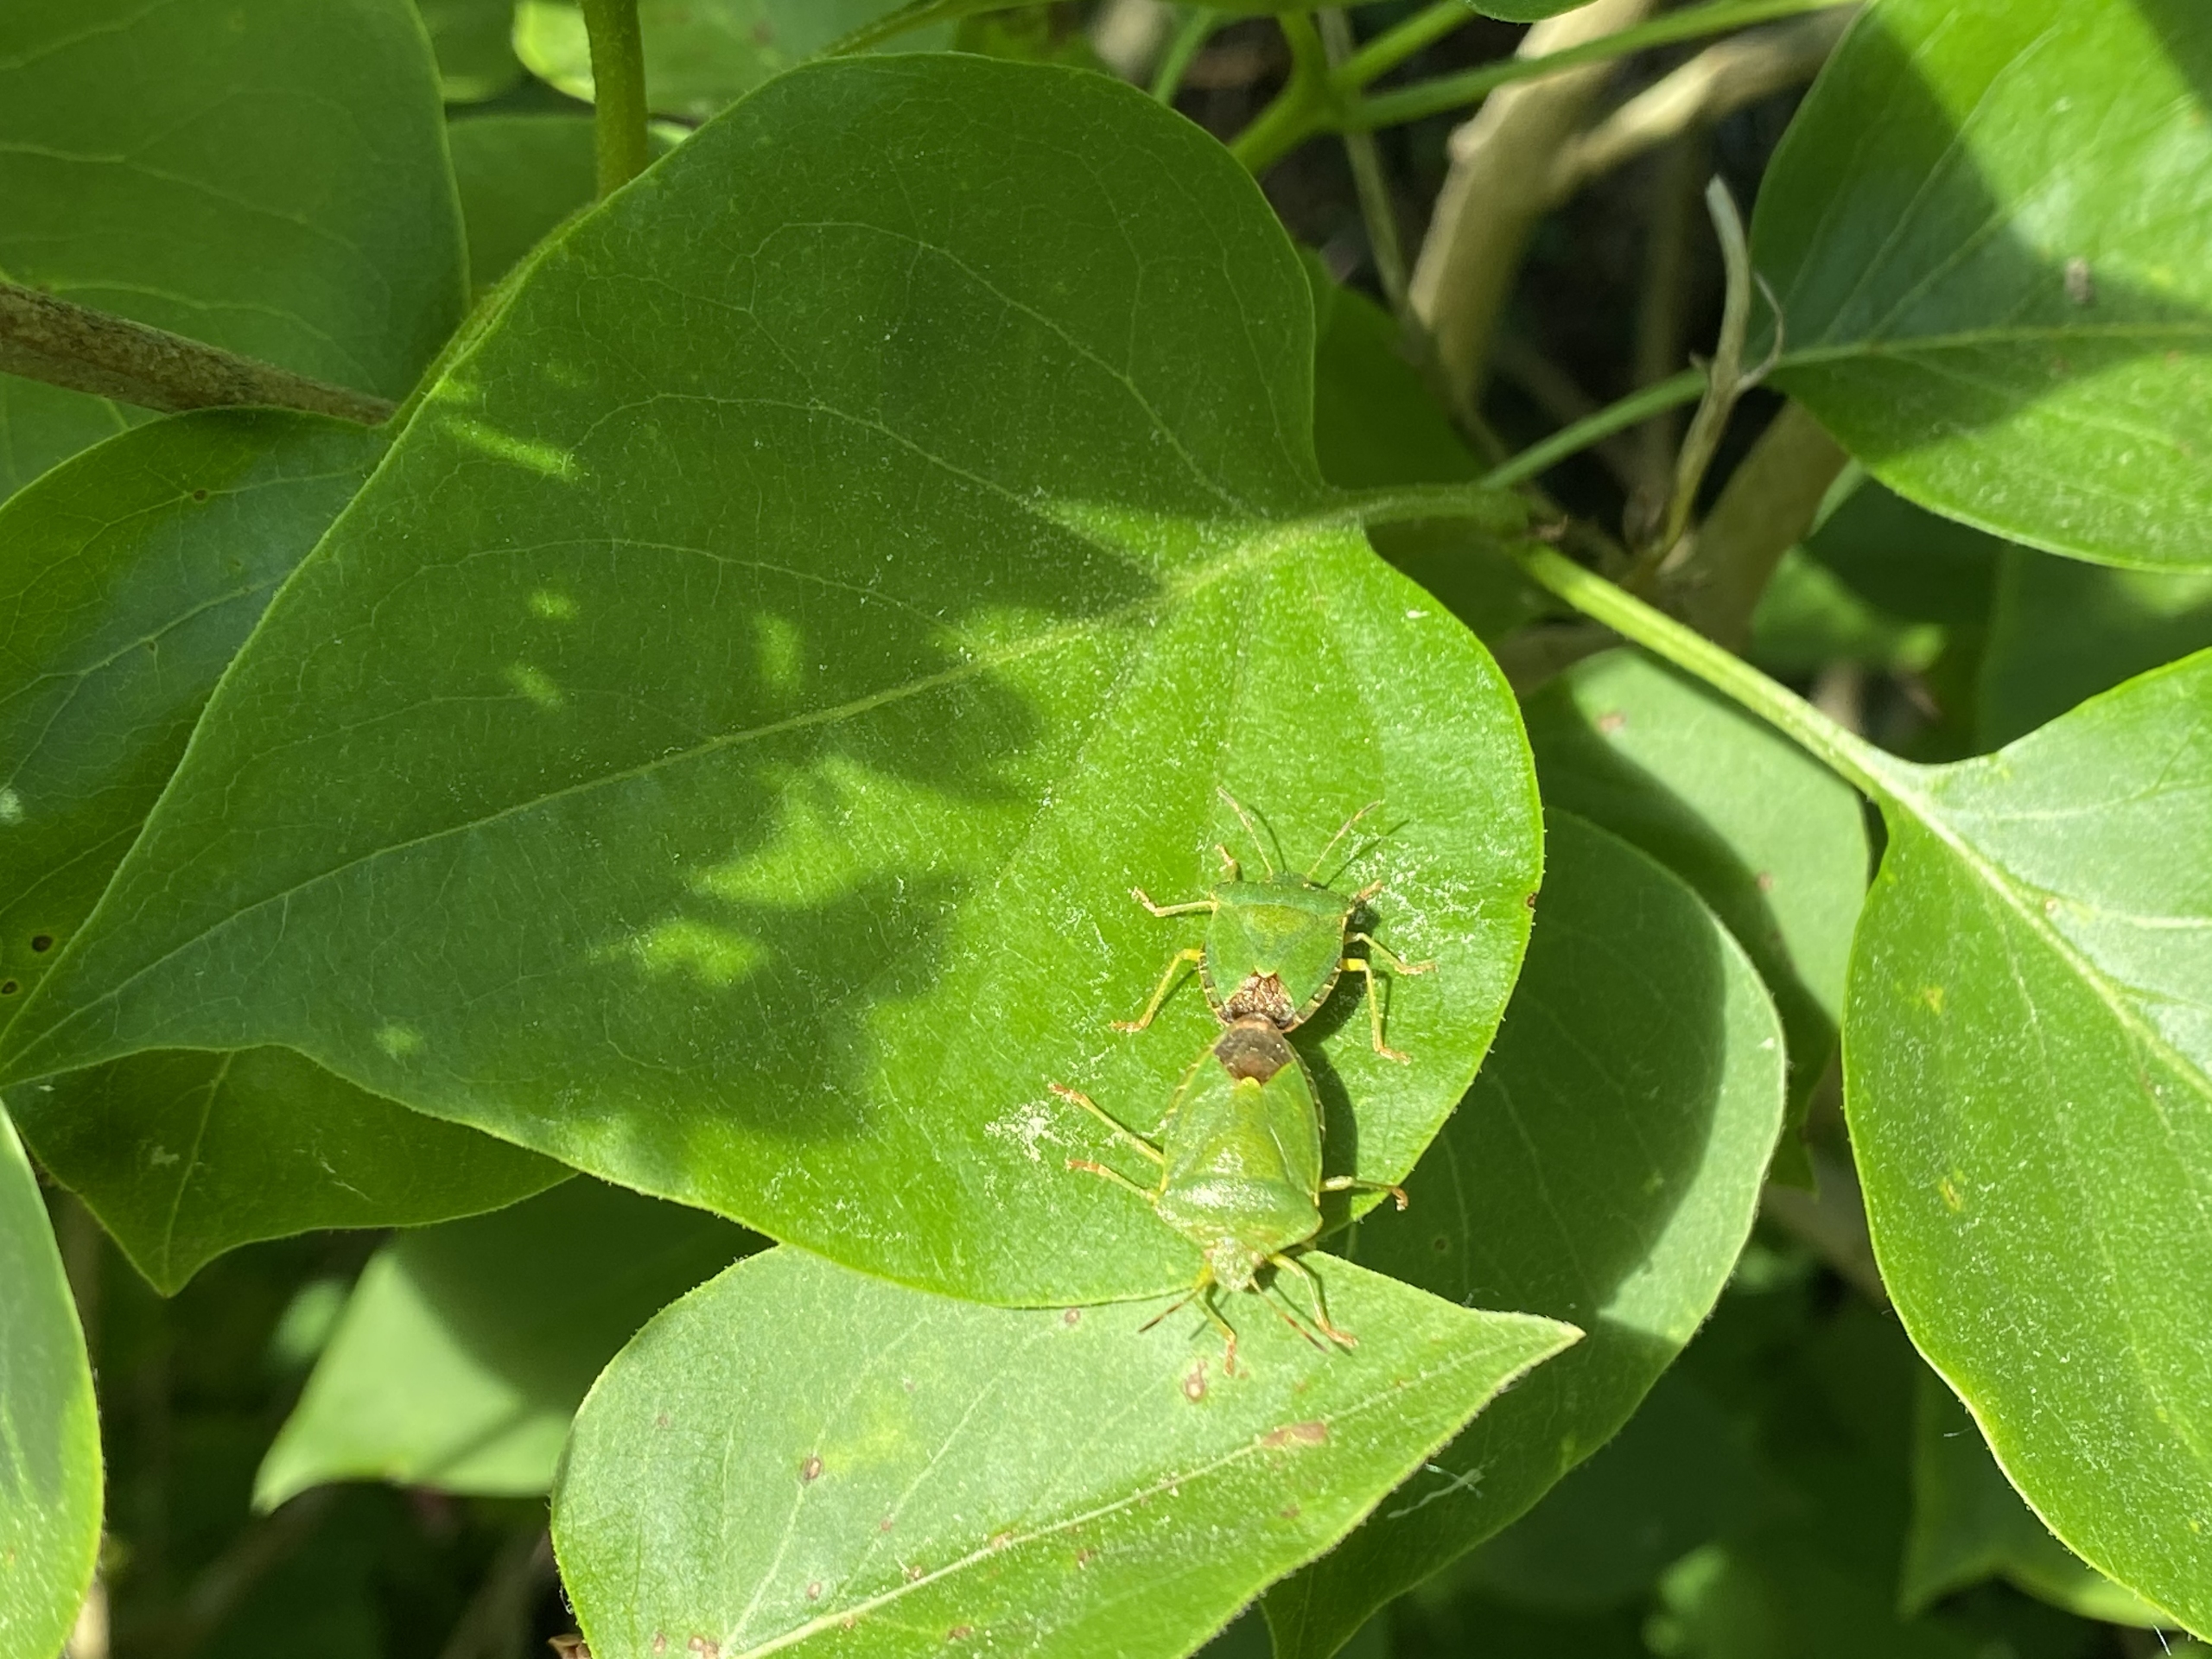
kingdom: Animalia
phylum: Arthropoda
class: Insecta
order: Hemiptera
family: Pentatomidae
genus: Palomena
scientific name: Palomena prasina
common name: Grøn bredtæge
